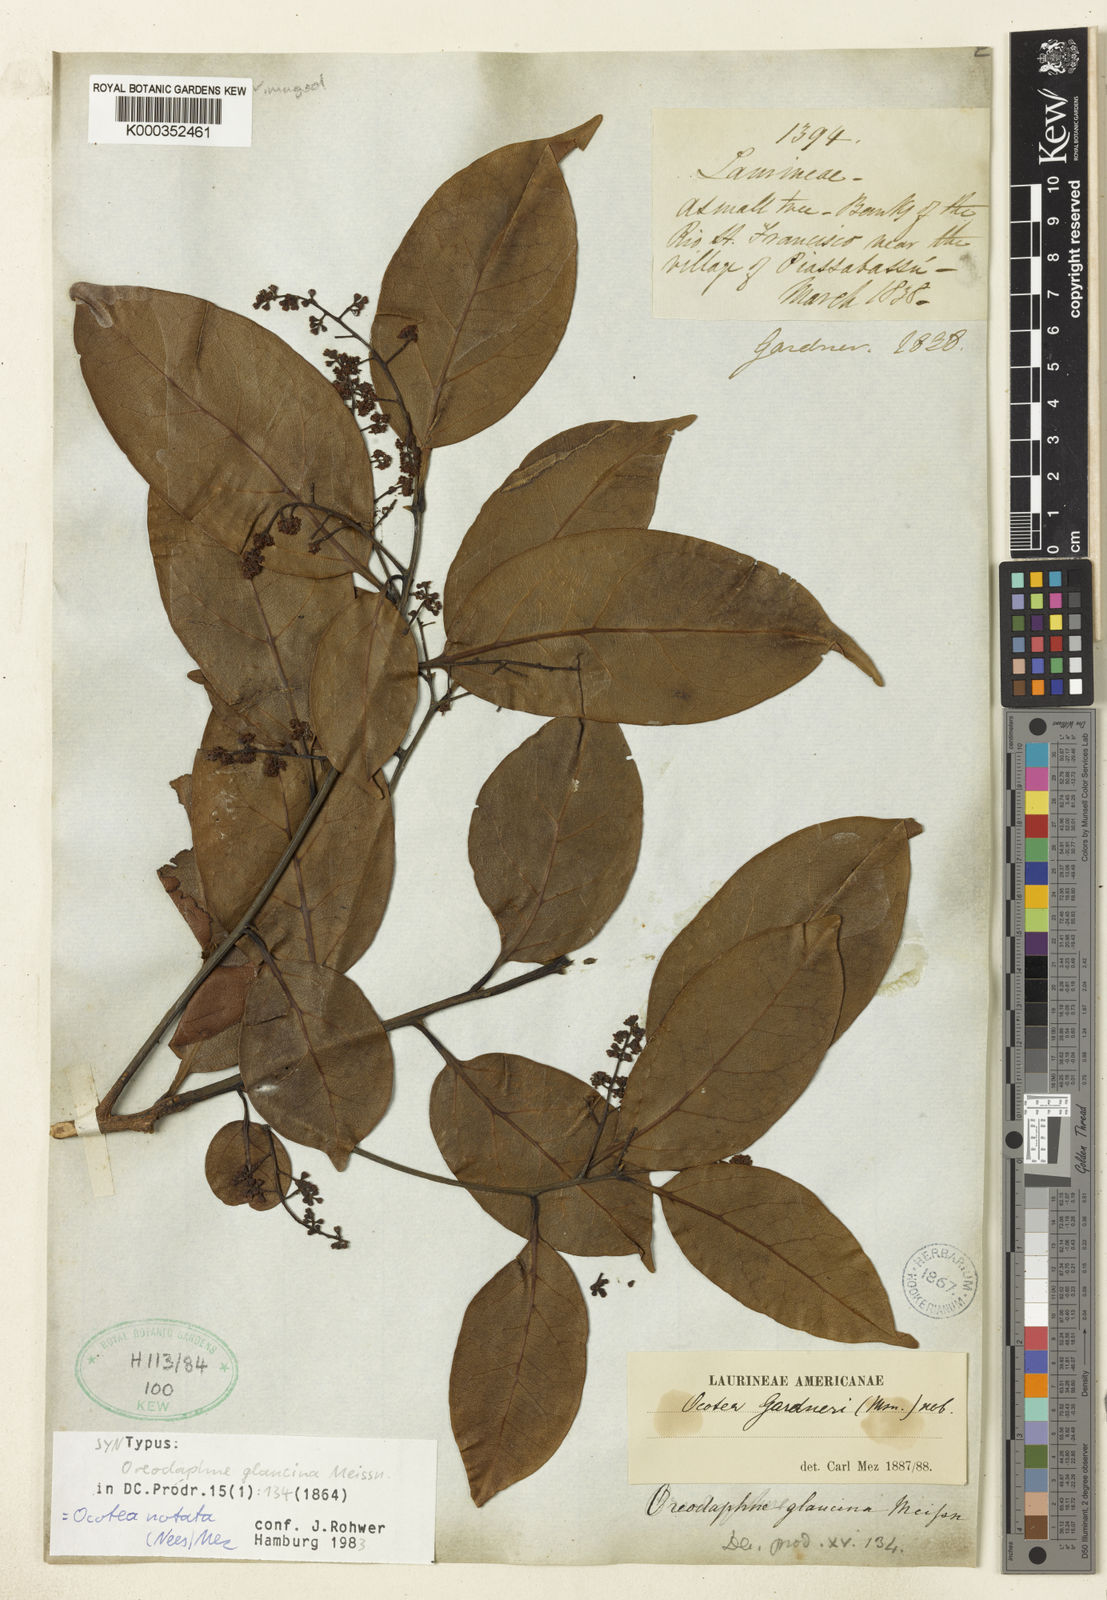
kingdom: Plantae
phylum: Tracheophyta
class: Magnoliopsida
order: Laurales
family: Lauraceae
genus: Mespilodaphne
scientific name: Mespilodaphne notata
